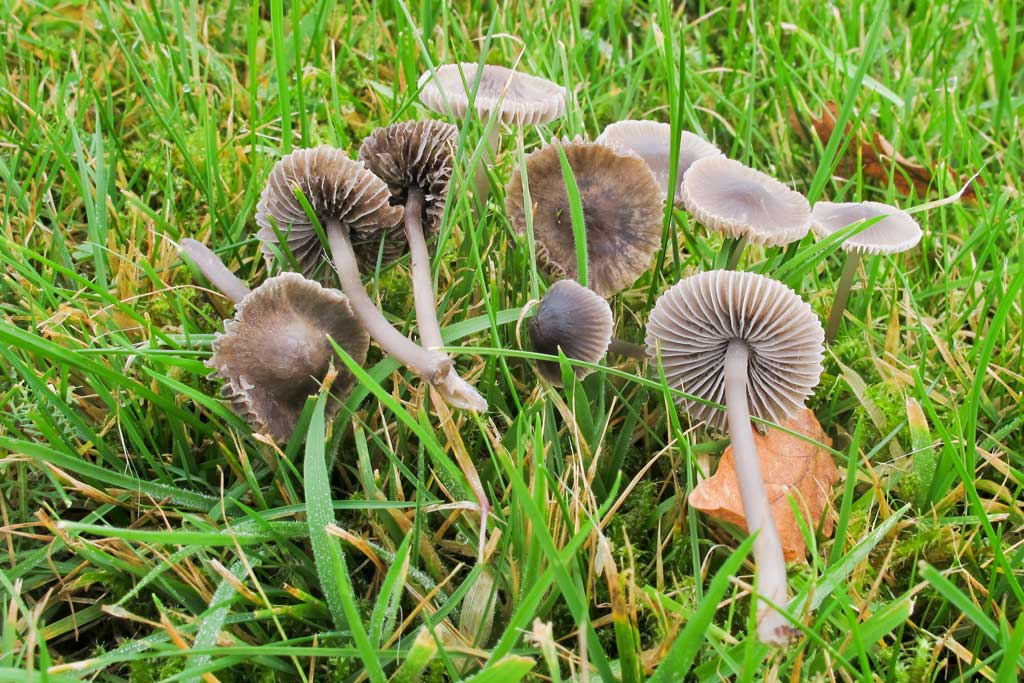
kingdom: Fungi
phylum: Basidiomycota
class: Agaricomycetes
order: Agaricales
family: Mycenaceae
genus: Mycena
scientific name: Mycena aetites
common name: plæne-huesvamp
